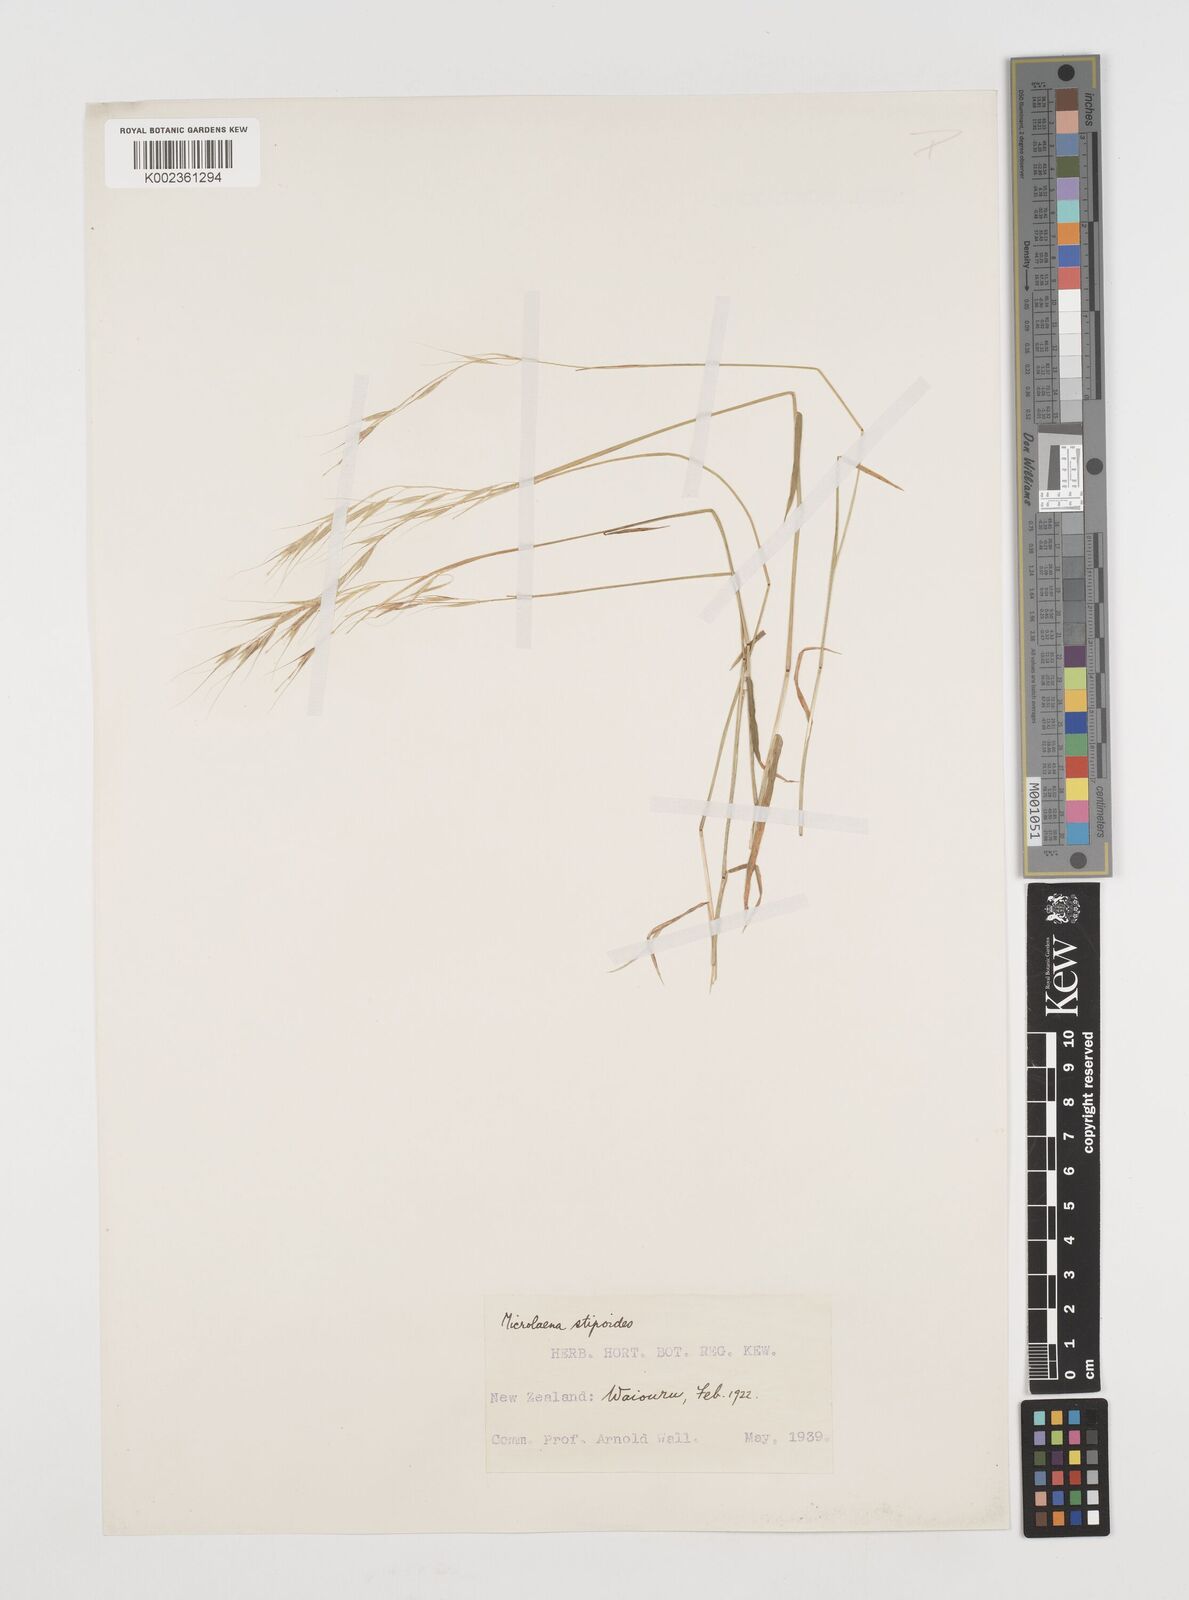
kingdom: Plantae
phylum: Tracheophyta
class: Liliopsida
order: Poales
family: Poaceae
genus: Microlaena
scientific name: Microlaena stipoides
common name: Meadow ricegrass
